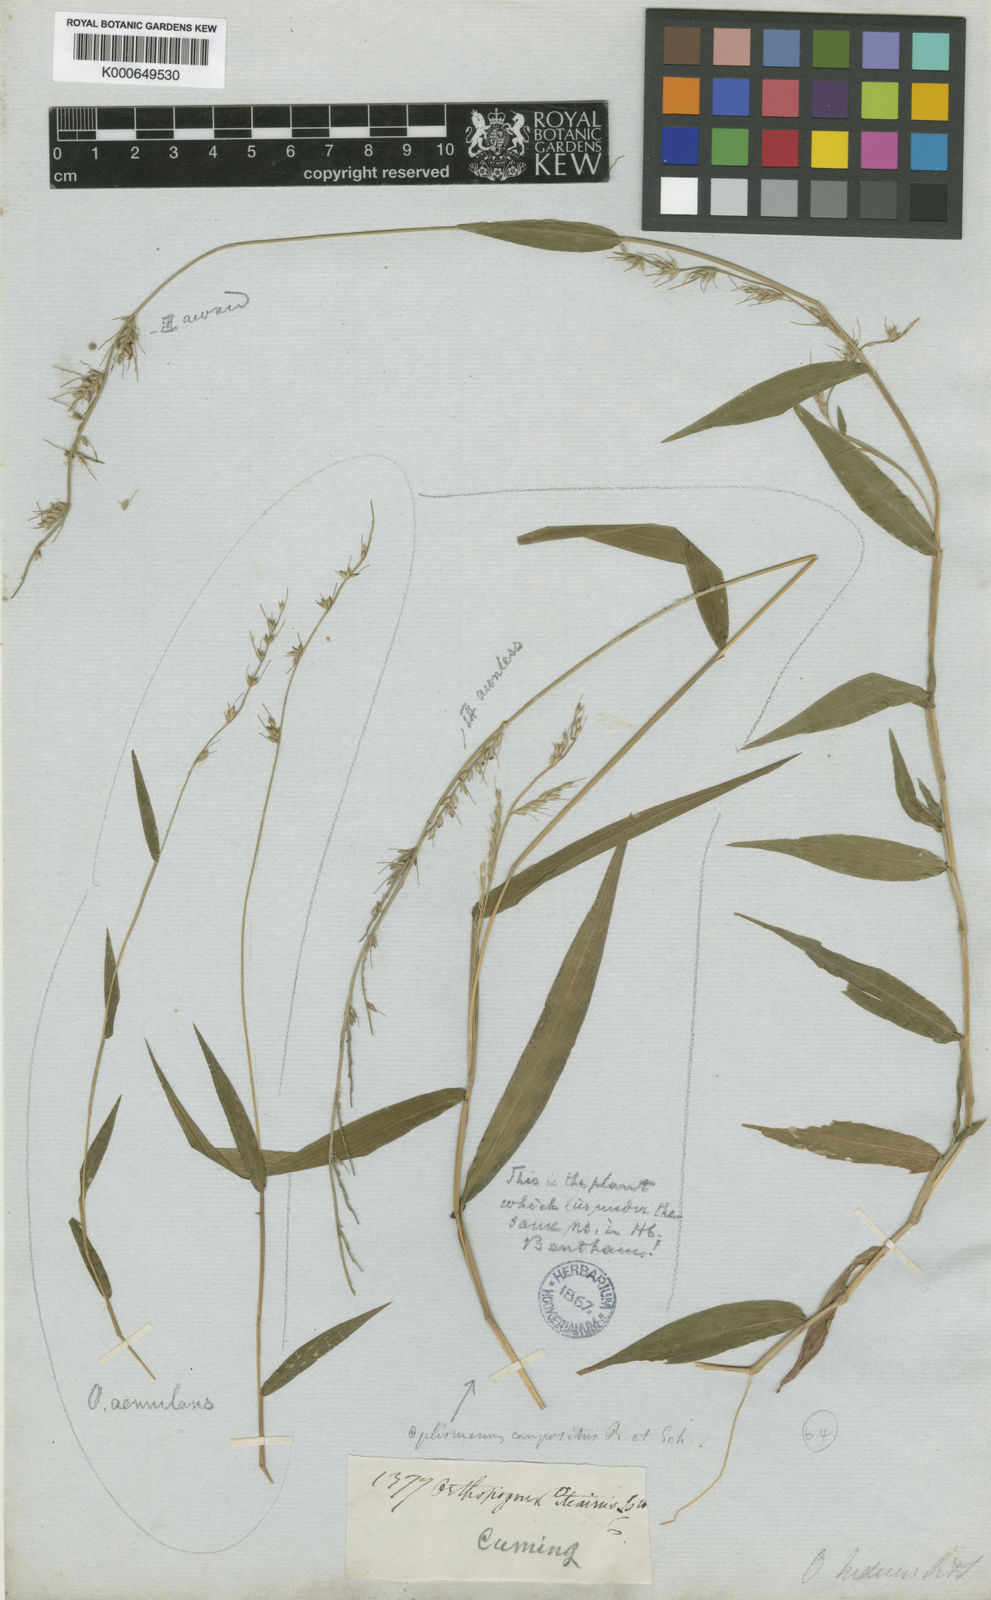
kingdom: Plantae
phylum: Tracheophyta
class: Liliopsida
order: Poales
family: Poaceae
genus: Oplismenus
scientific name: Oplismenus hirtellus
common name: Basketgrass
